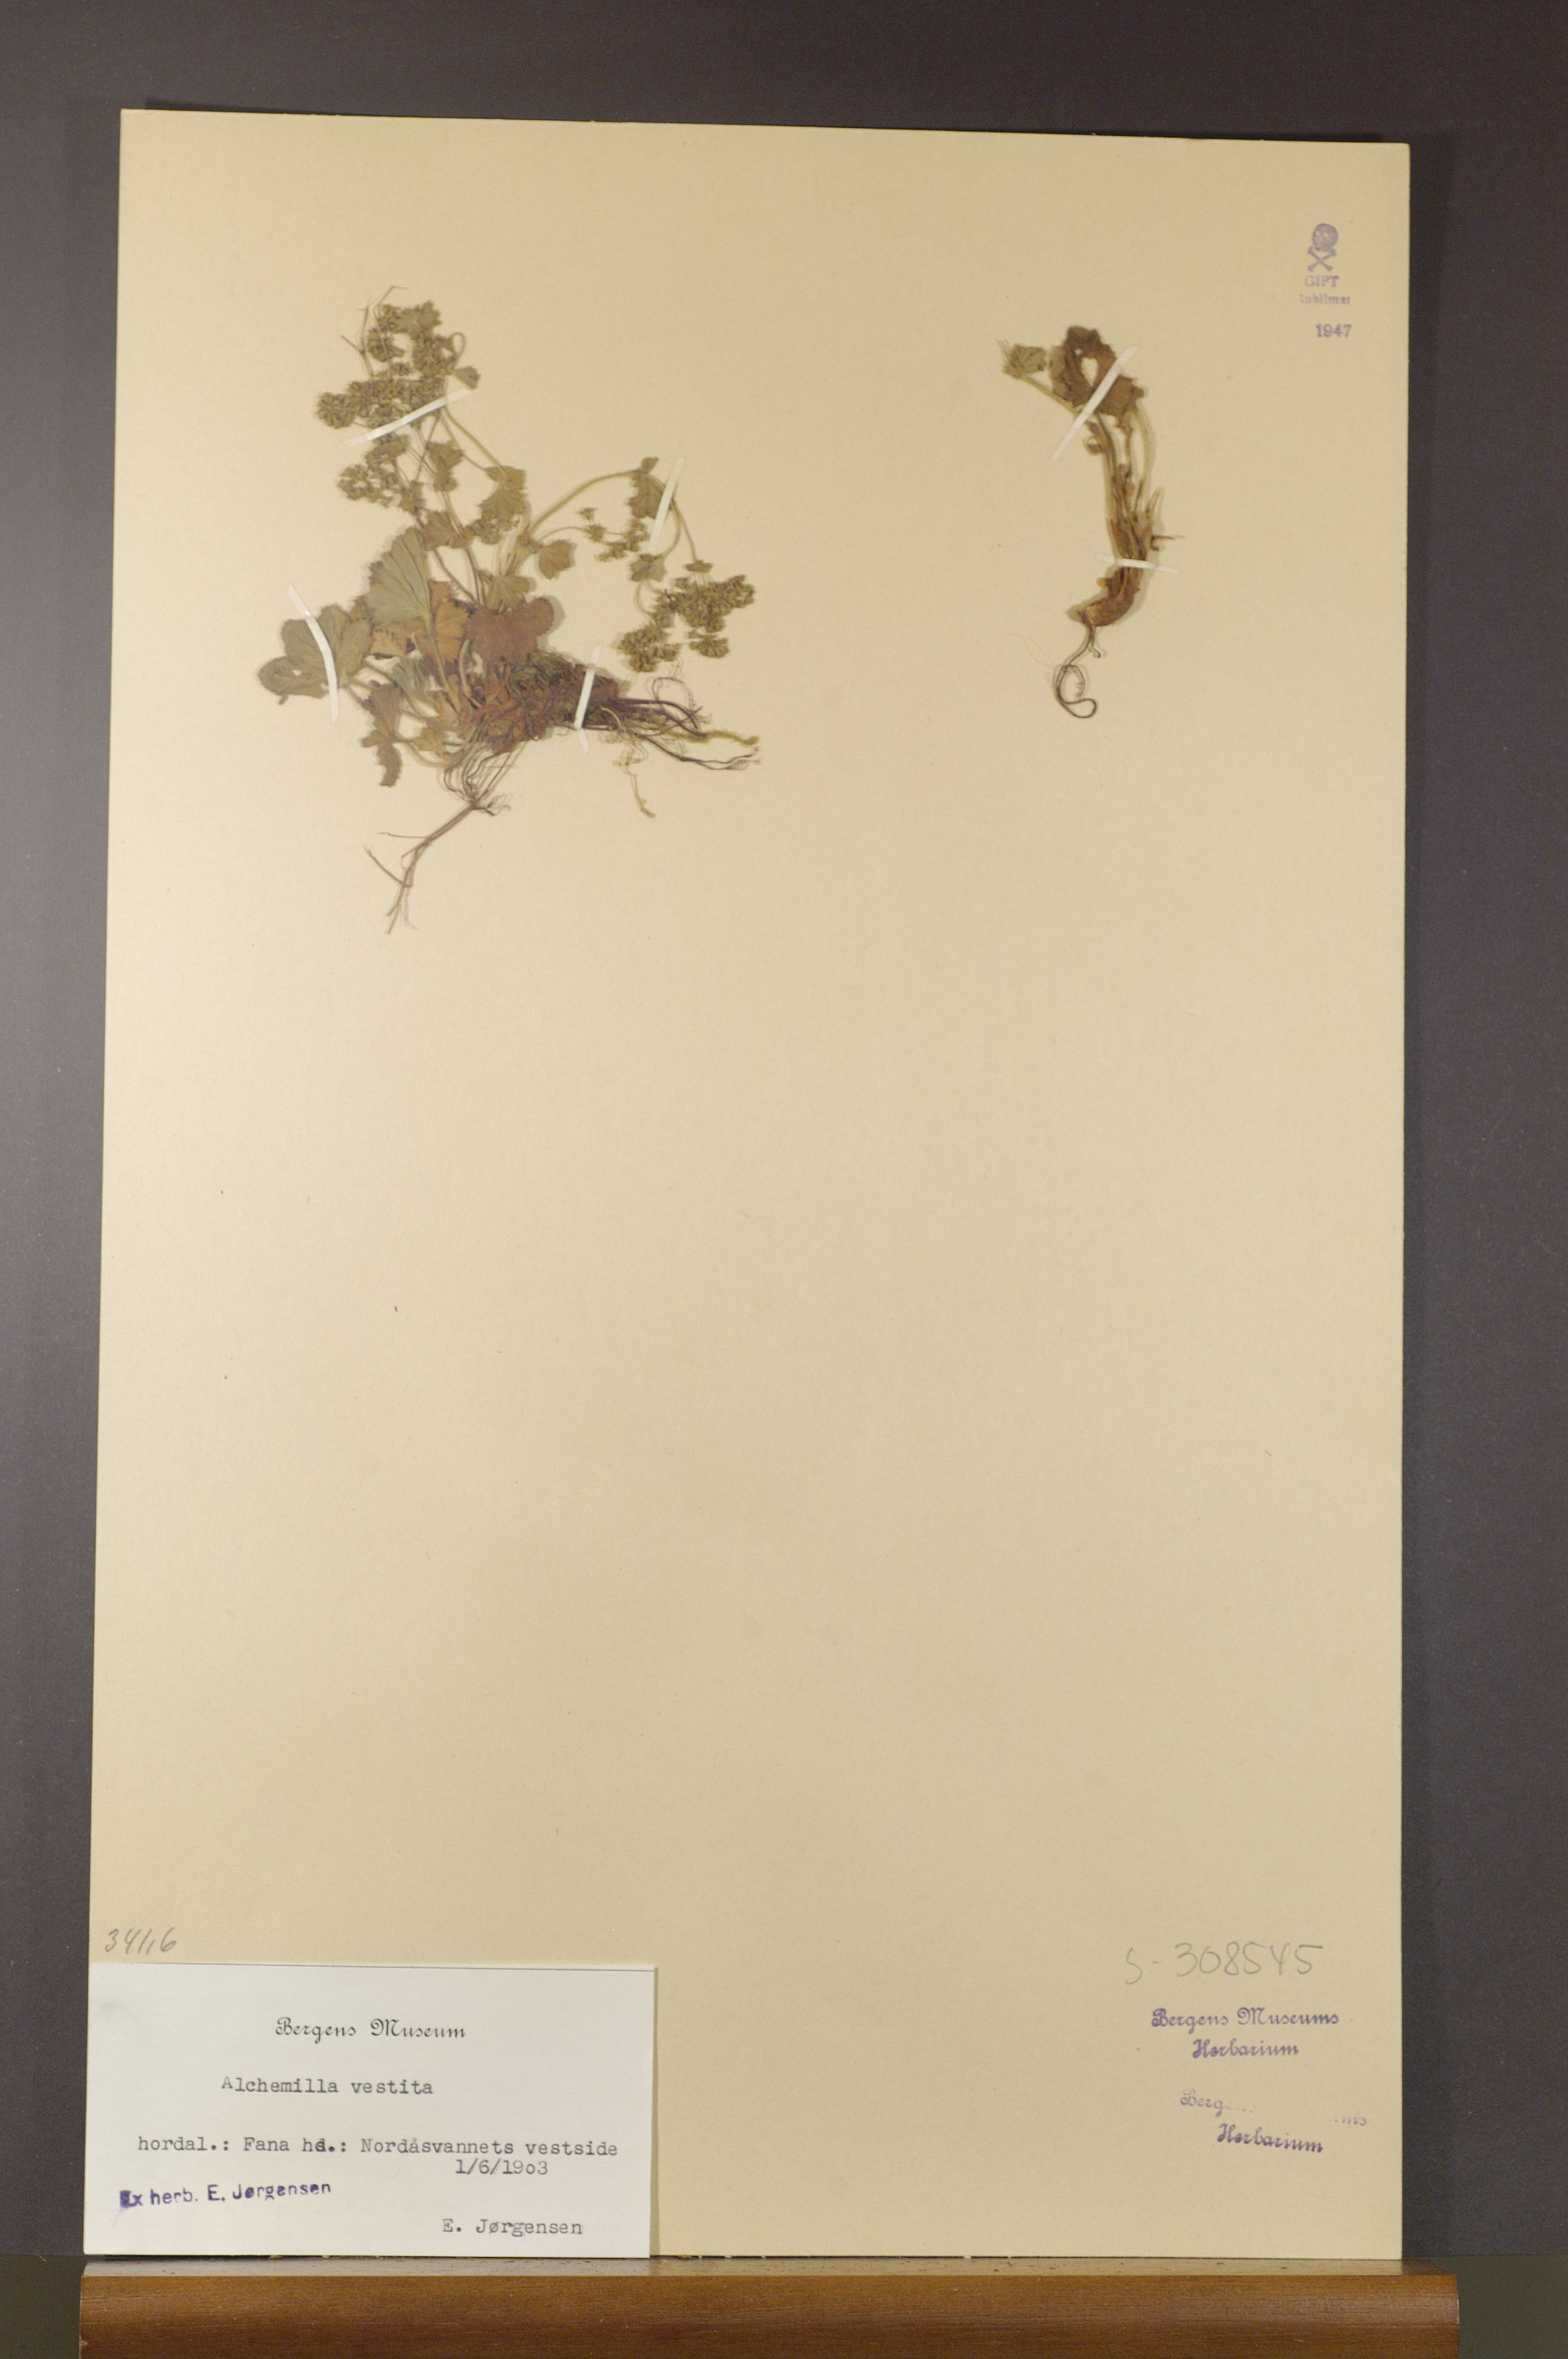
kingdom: Plantae
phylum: Tracheophyta
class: Magnoliopsida
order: Rosales
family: Rosaceae
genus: Alchemilla
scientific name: Alchemilla filicaulis
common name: Hairy lady's-mantle
